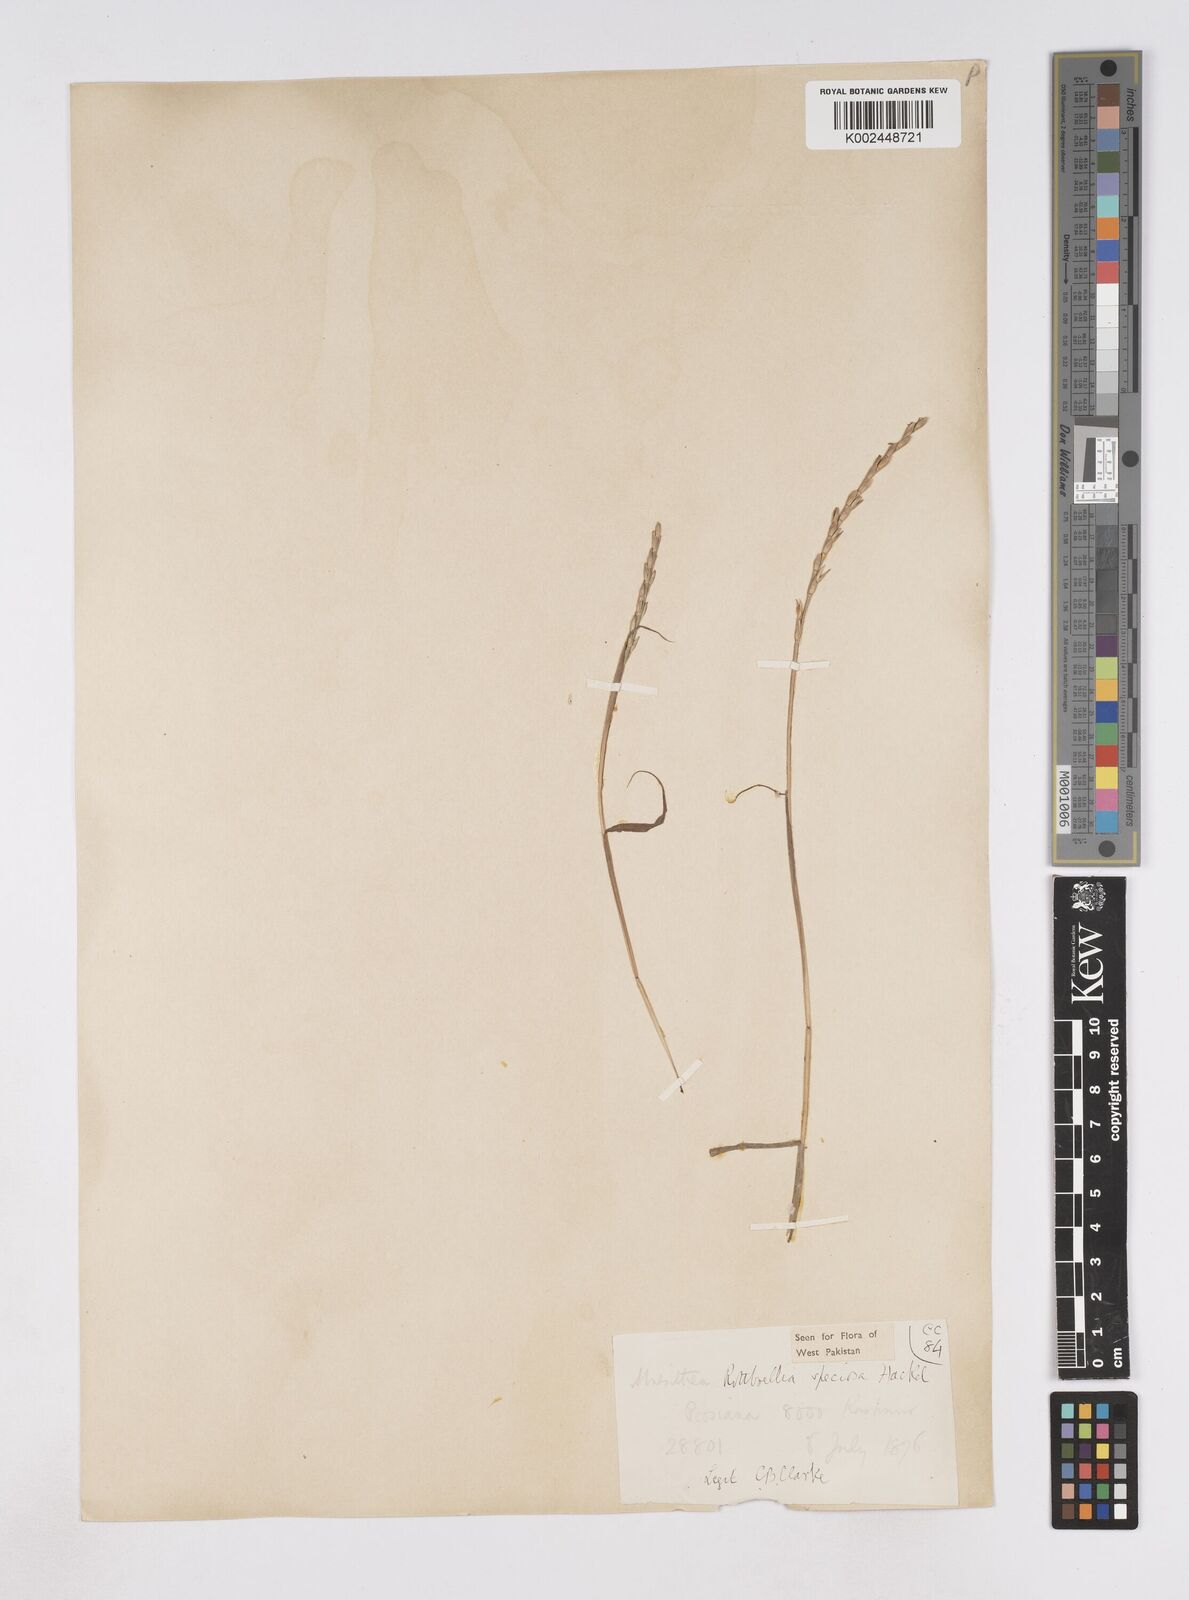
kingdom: Plantae
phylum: Tracheophyta
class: Liliopsida
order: Poales
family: Poaceae
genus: Phacelurus
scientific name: Phacelurus speciosus
